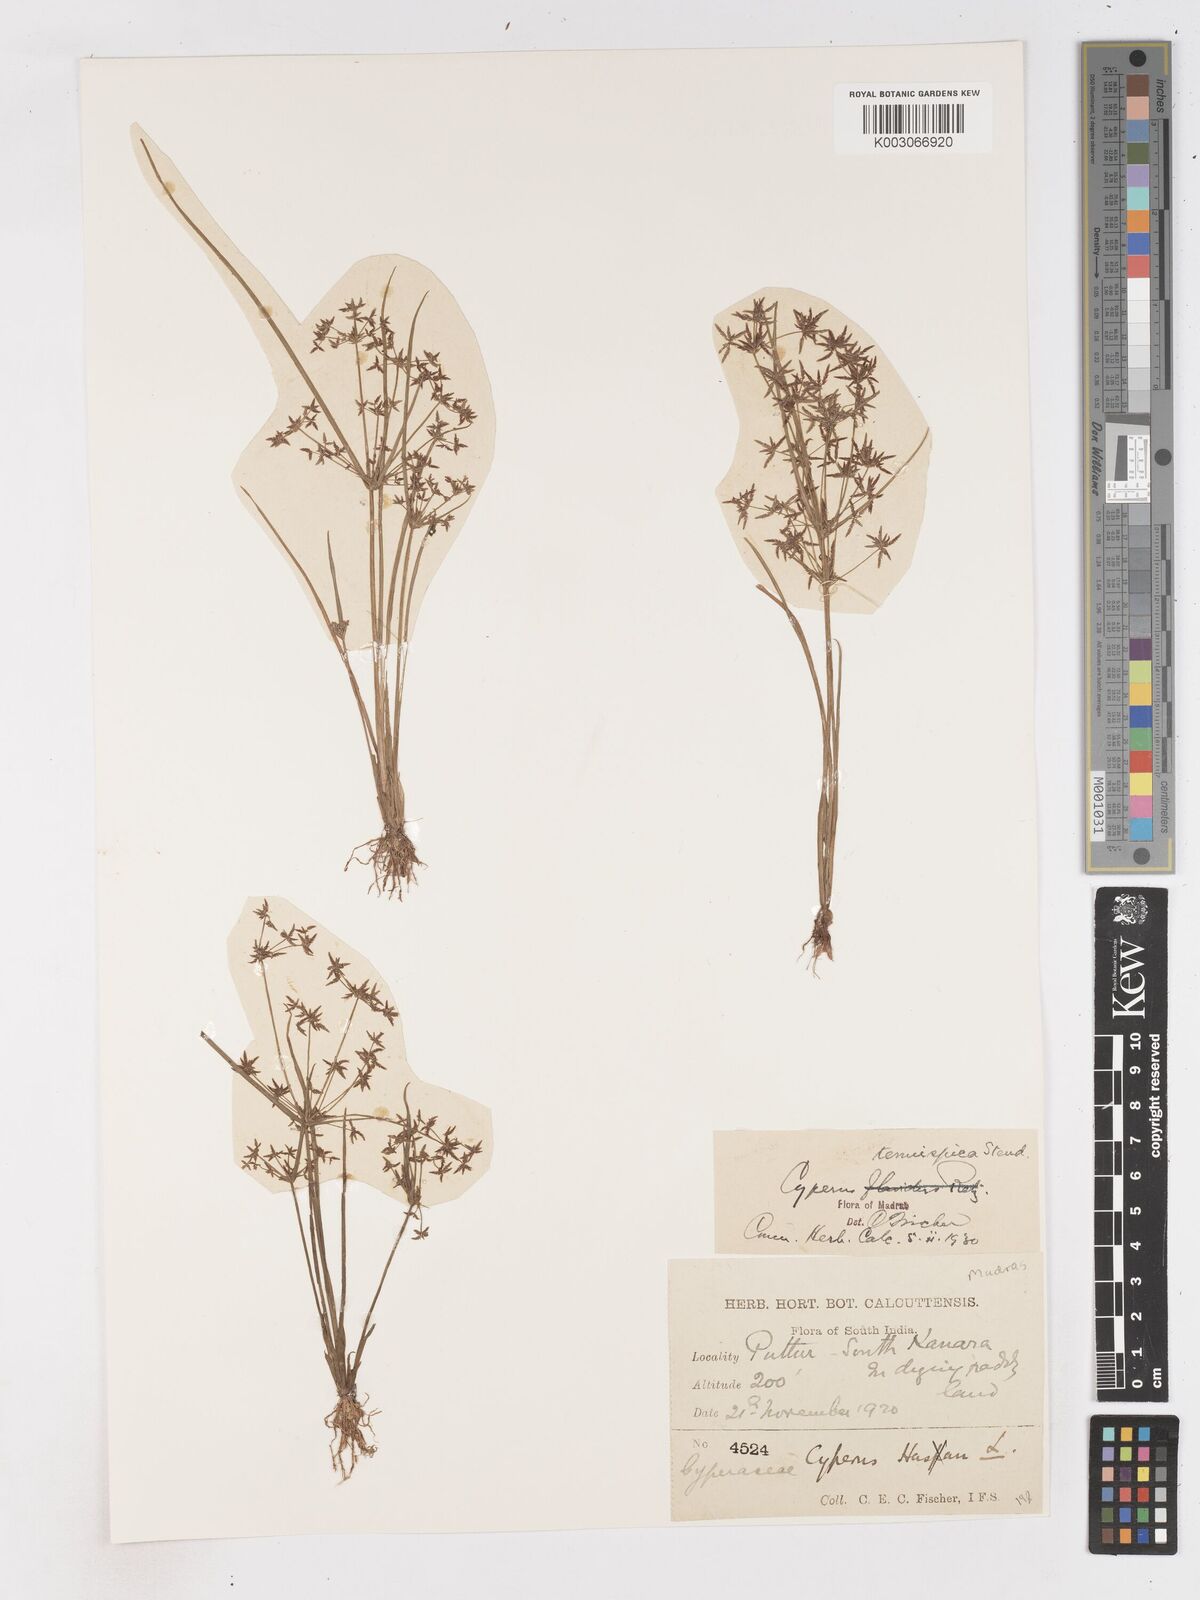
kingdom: Plantae
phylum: Tracheophyta
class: Liliopsida
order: Poales
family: Cyperaceae
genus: Cyperus
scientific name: Cyperus tenuispica
